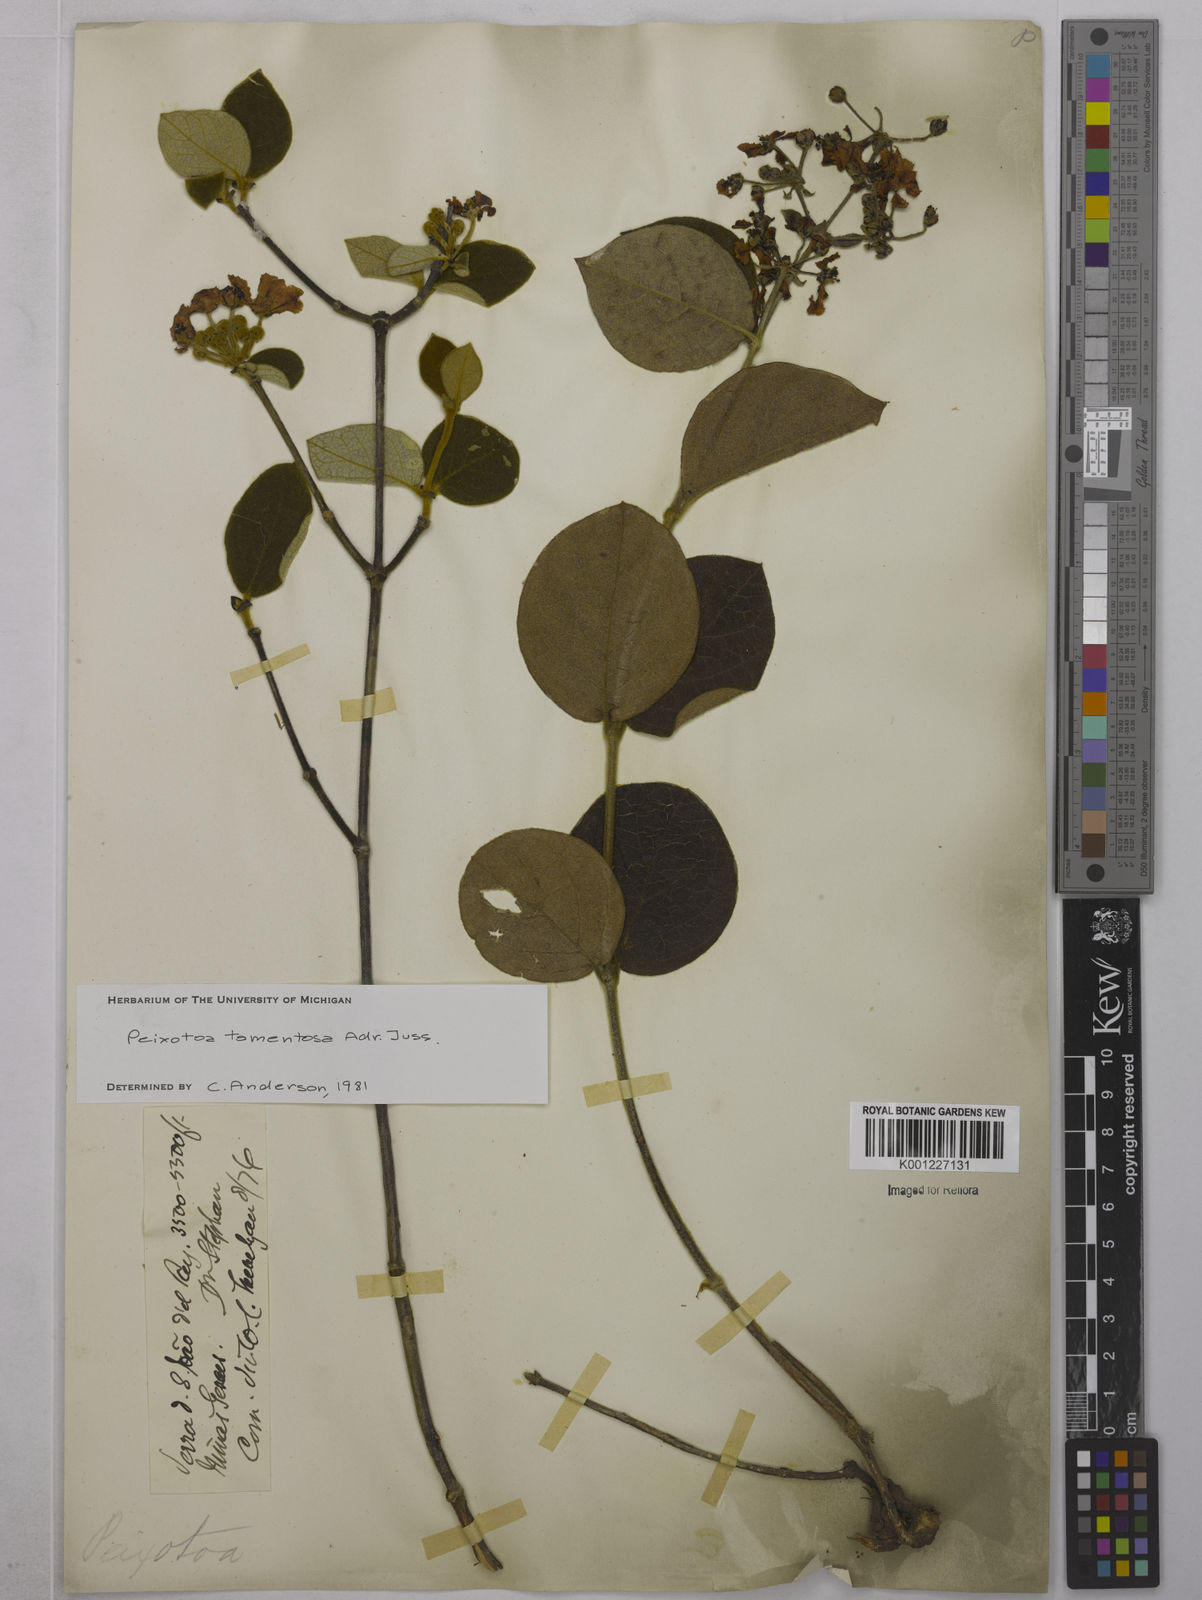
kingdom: Plantae
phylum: Tracheophyta
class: Magnoliopsida
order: Malpighiales
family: Malpighiaceae
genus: Peixotoa
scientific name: Peixotoa tomentosa
